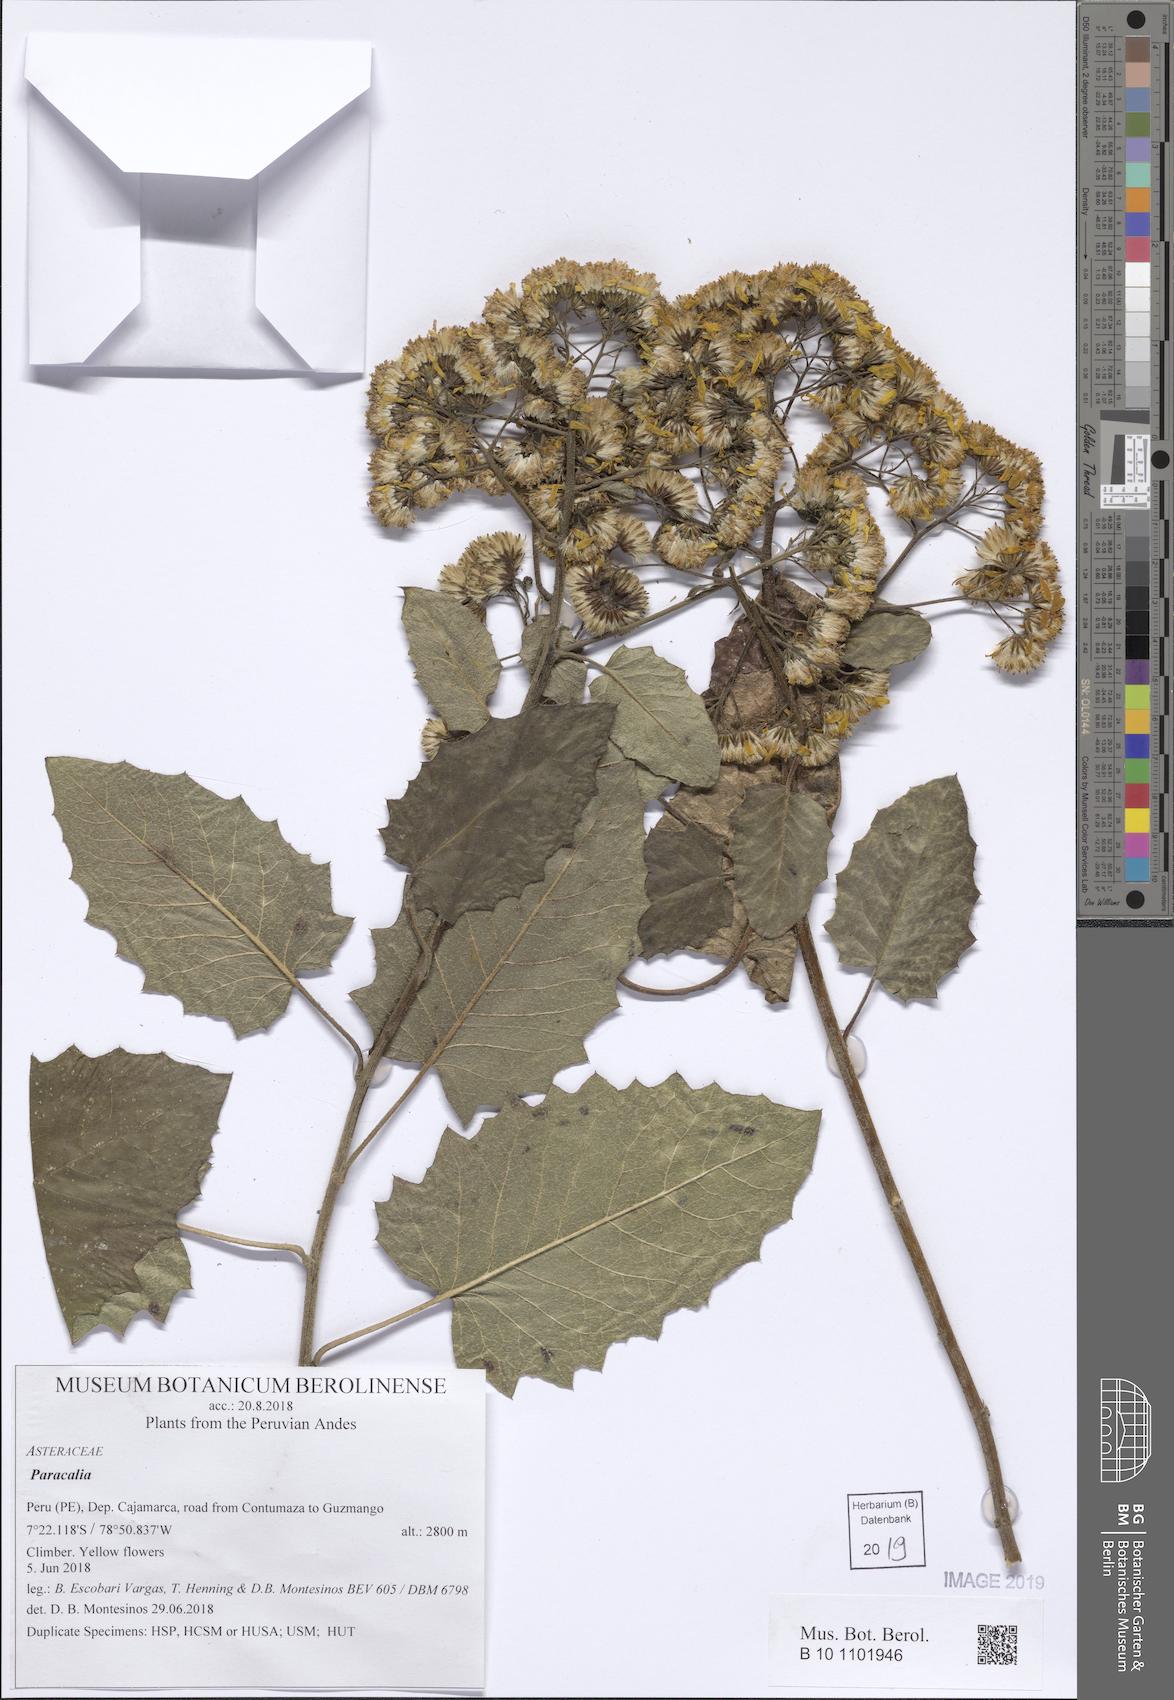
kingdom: Plantae
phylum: Tracheophyta
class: Magnoliopsida
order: Asterales
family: Asteraceae
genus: Paracalia
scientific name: Paracalia
